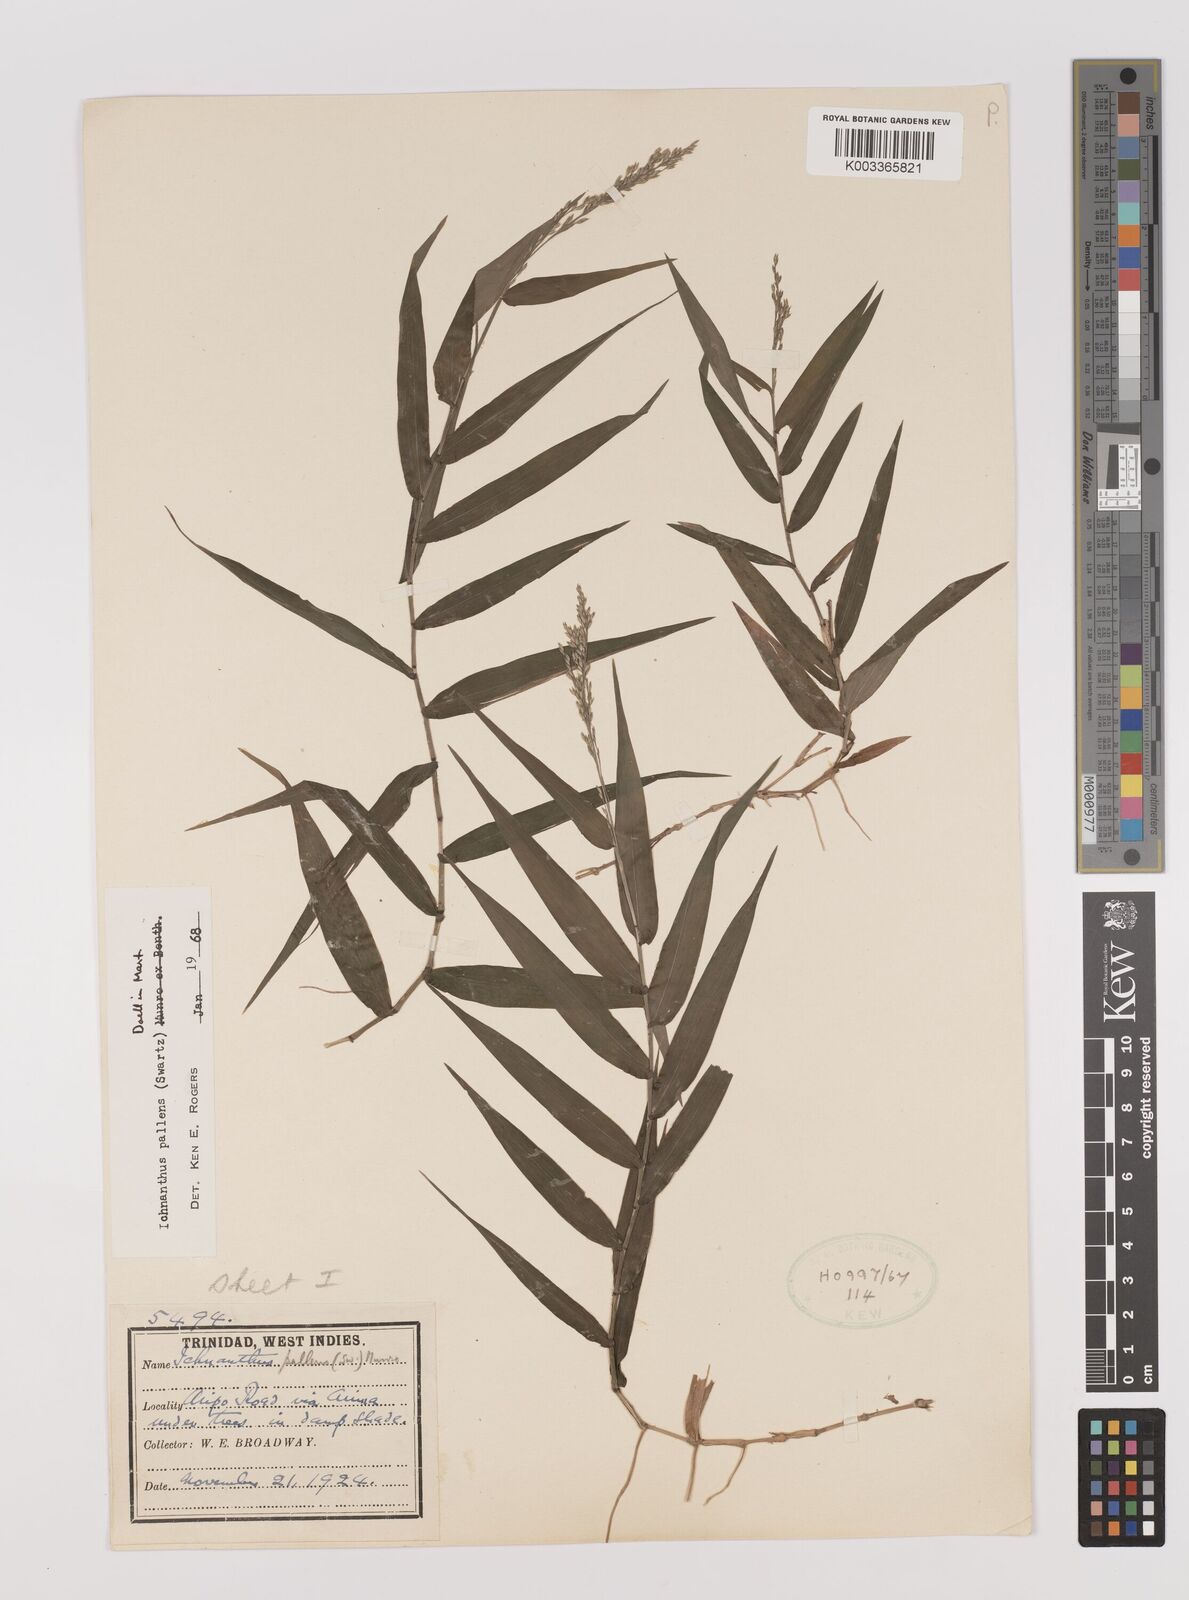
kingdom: Plantae
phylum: Tracheophyta
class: Liliopsida
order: Poales
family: Poaceae
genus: Ichnanthus
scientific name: Ichnanthus pallens
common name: Water grass
